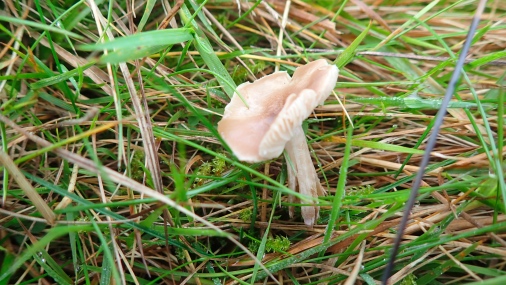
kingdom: Fungi
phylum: Basidiomycota
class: Agaricomycetes
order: Agaricales
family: Tricholomataceae
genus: Dermoloma
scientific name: Dermoloma cuneifolium
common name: eng-nonnehat
